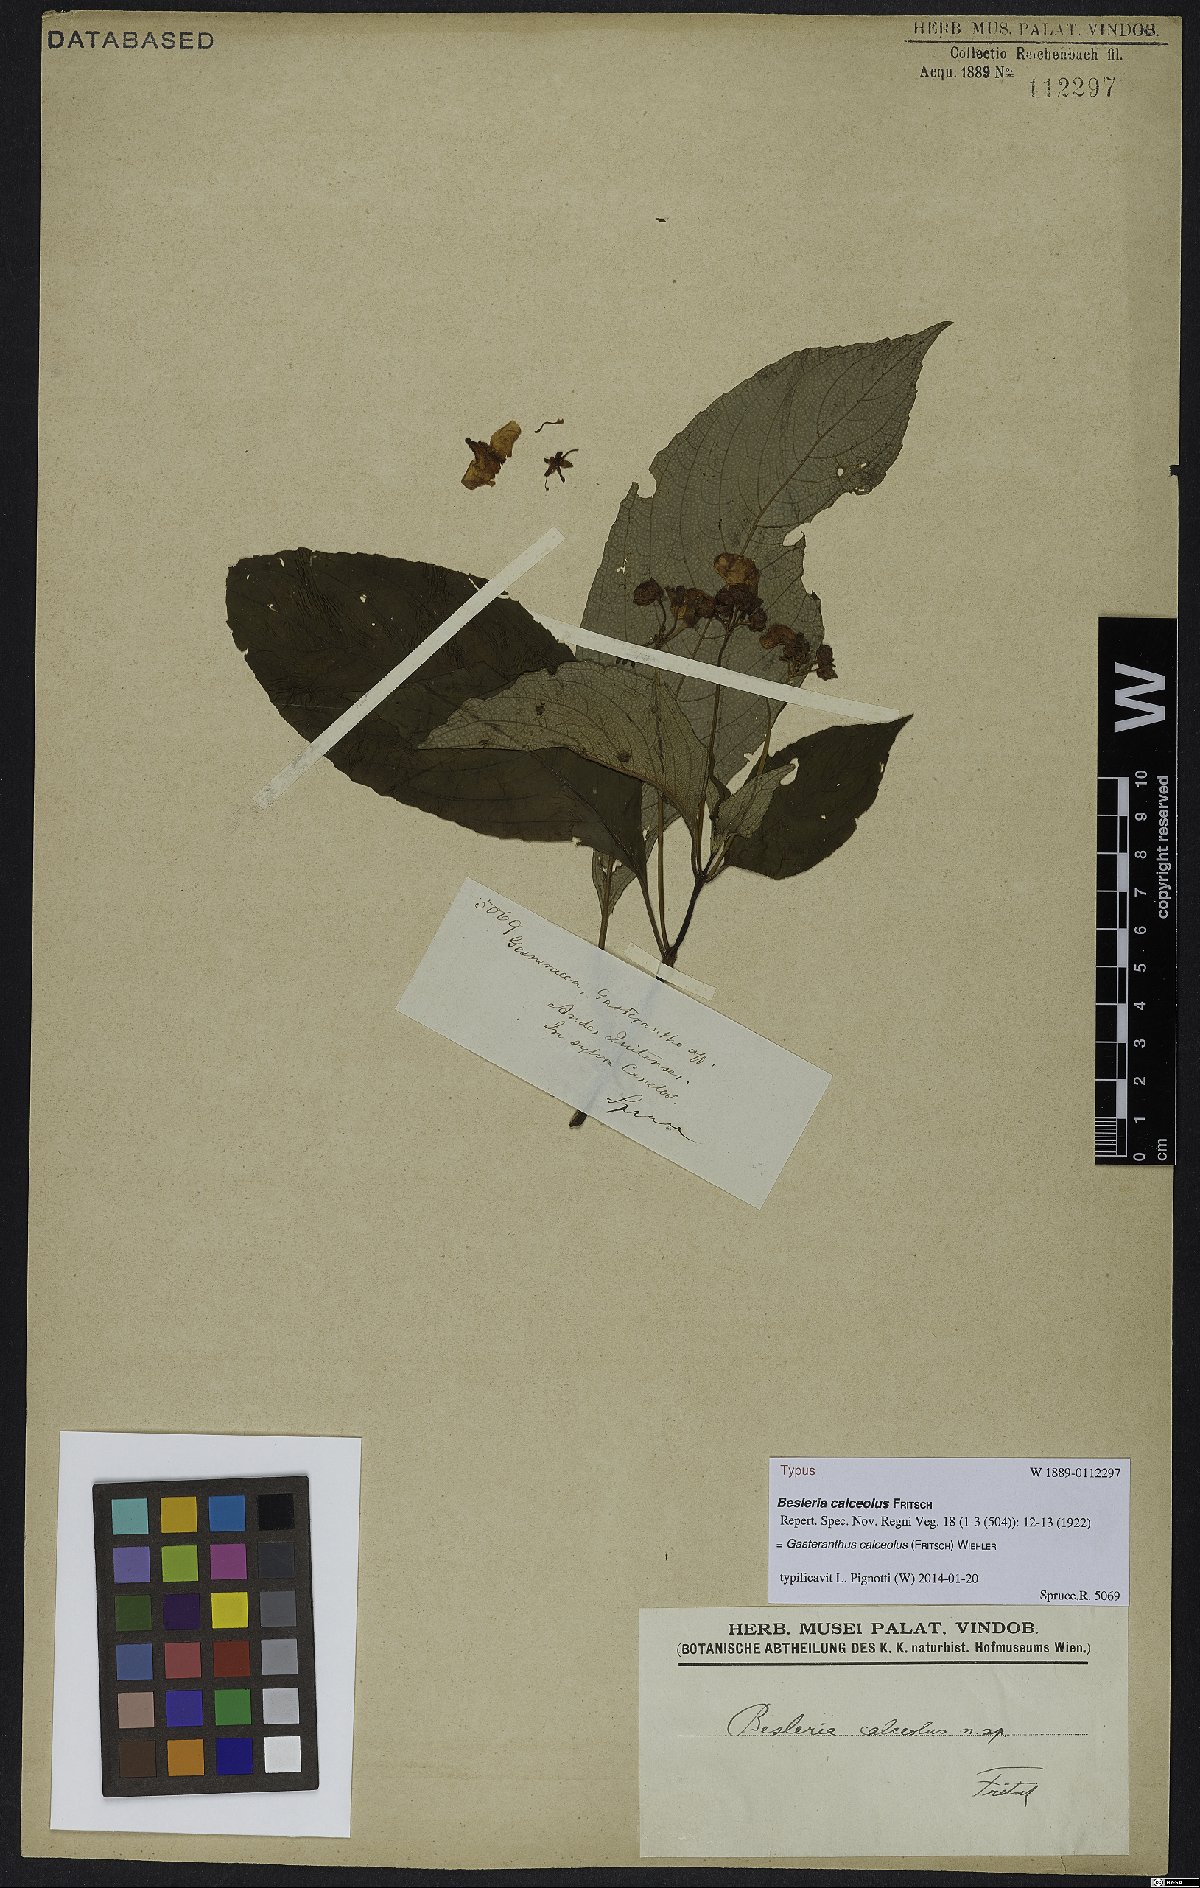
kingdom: Plantae
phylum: Tracheophyta
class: Magnoliopsida
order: Lamiales
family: Gesneriaceae
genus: Gasteranthus
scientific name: Gasteranthus calcaratus
